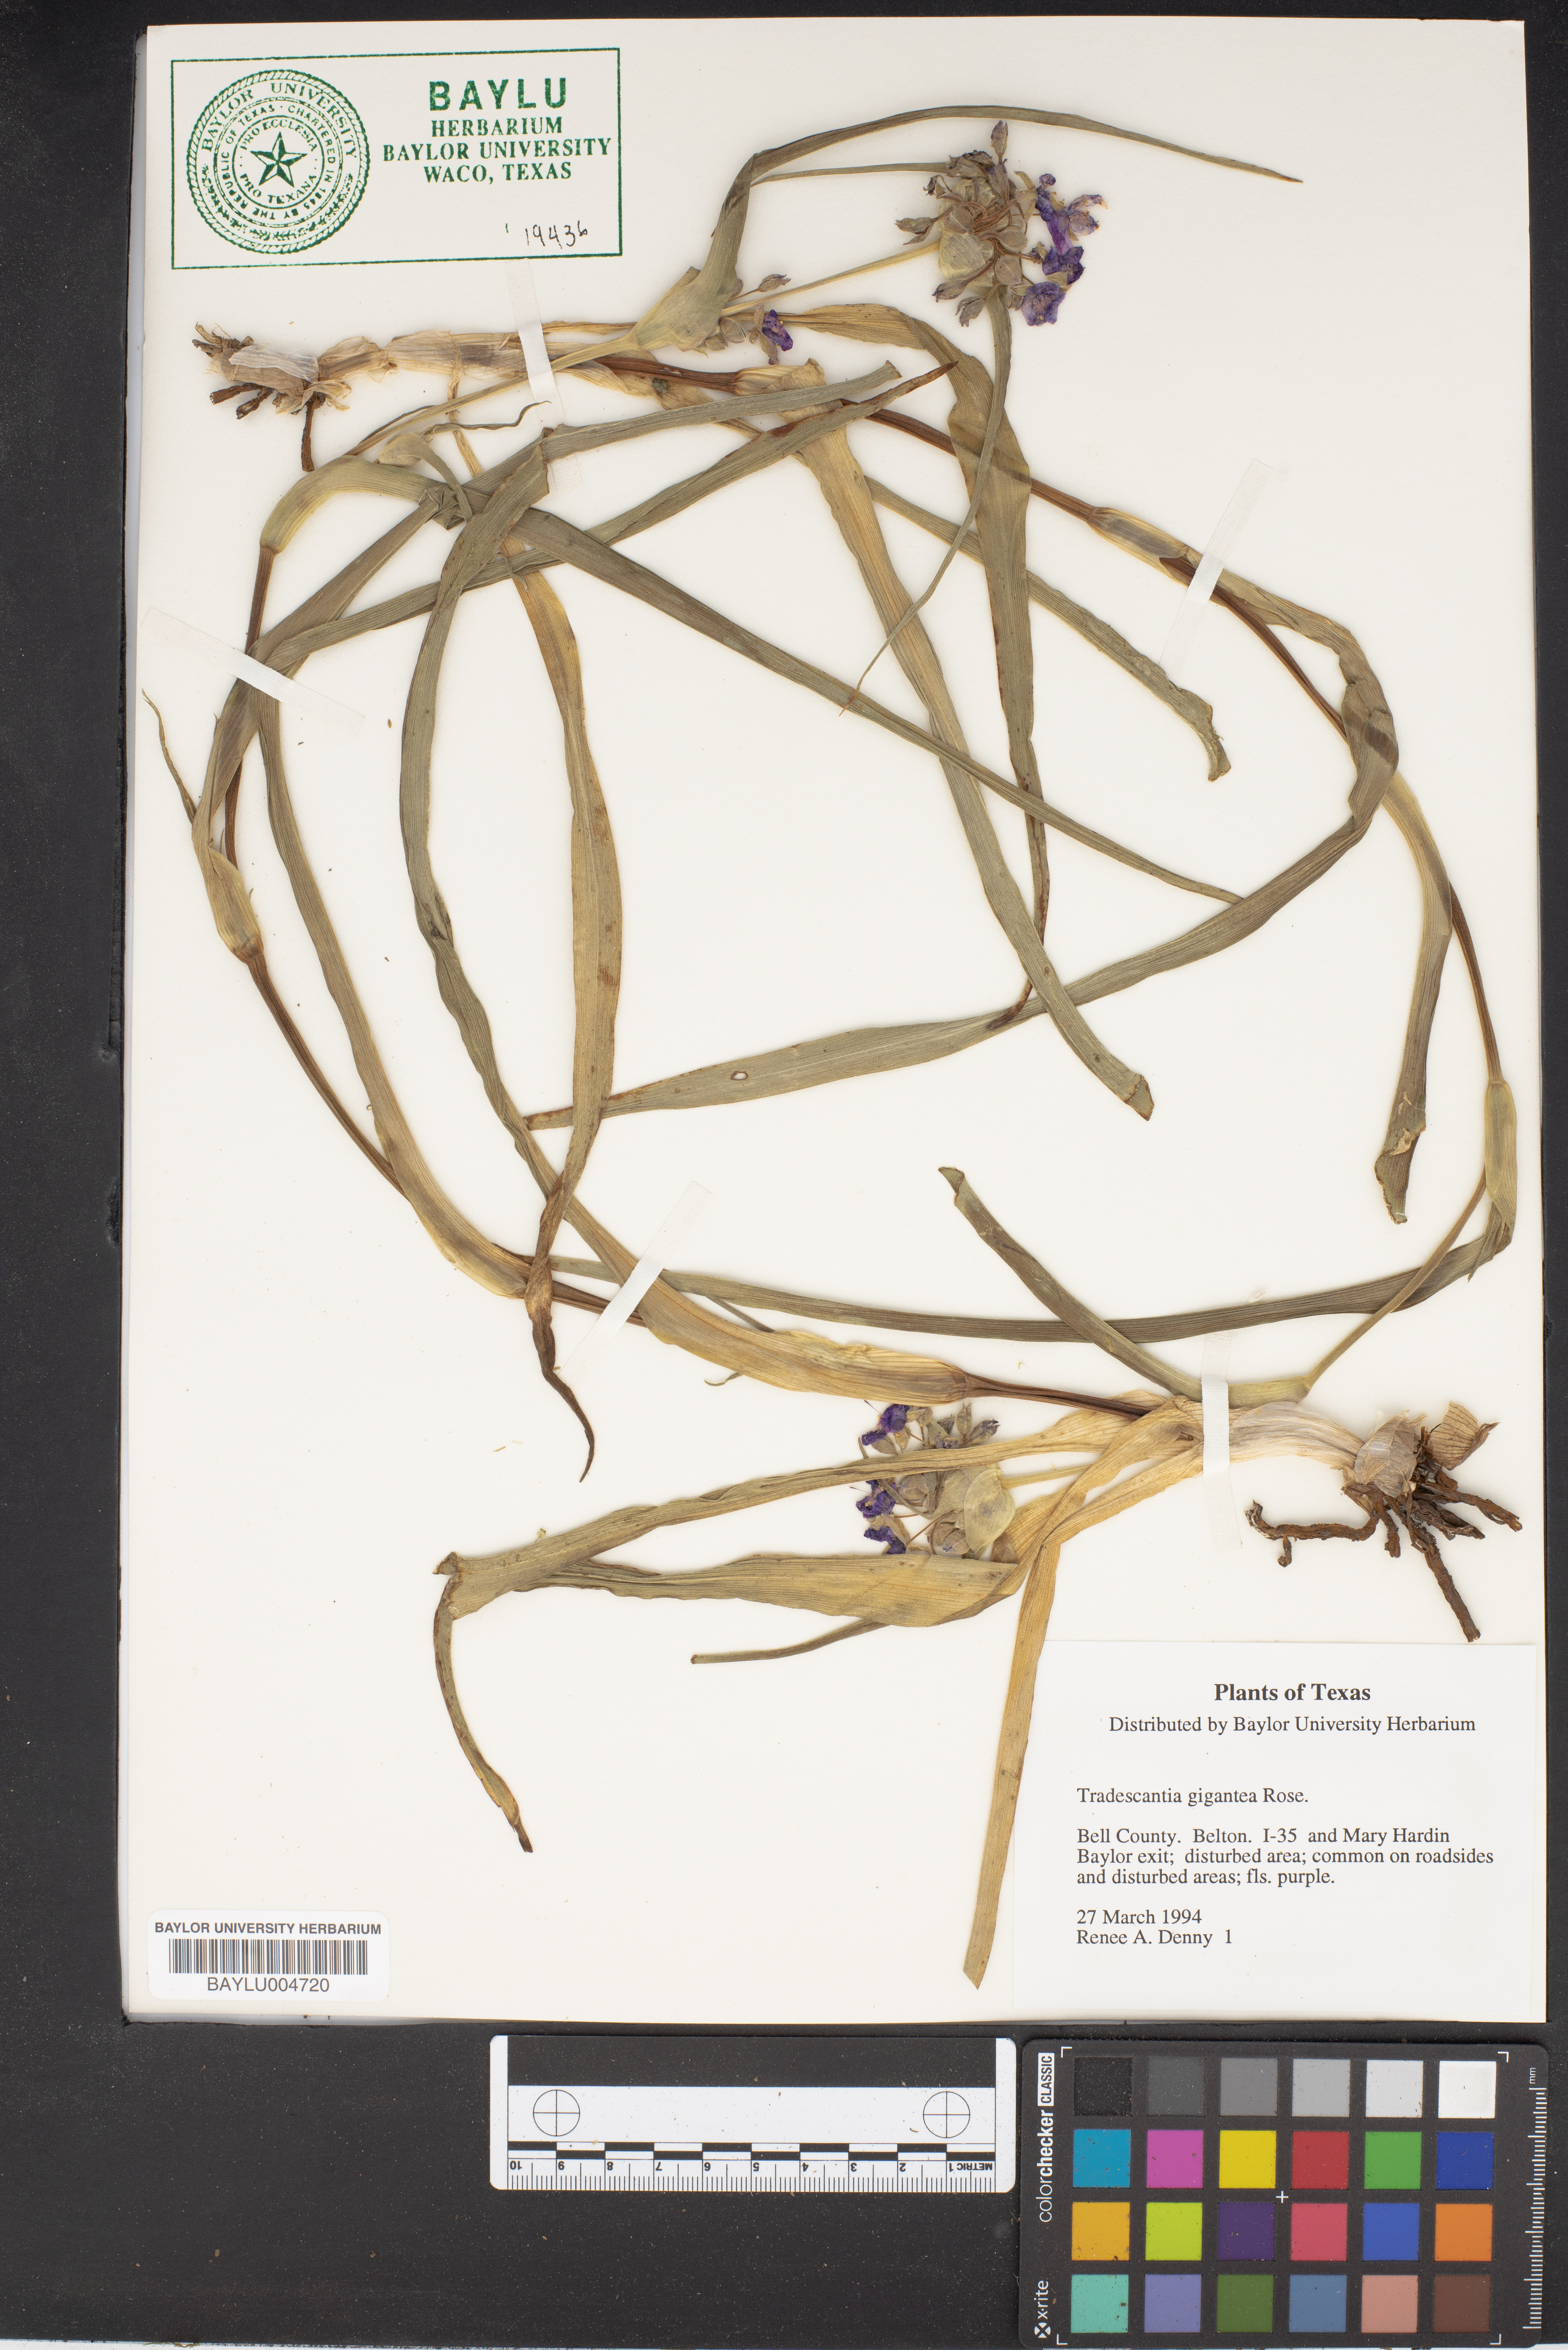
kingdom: Plantae
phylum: Tracheophyta
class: Liliopsida
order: Commelinales
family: Commelinaceae
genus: Tradescantia
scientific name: Tradescantia gigantea
